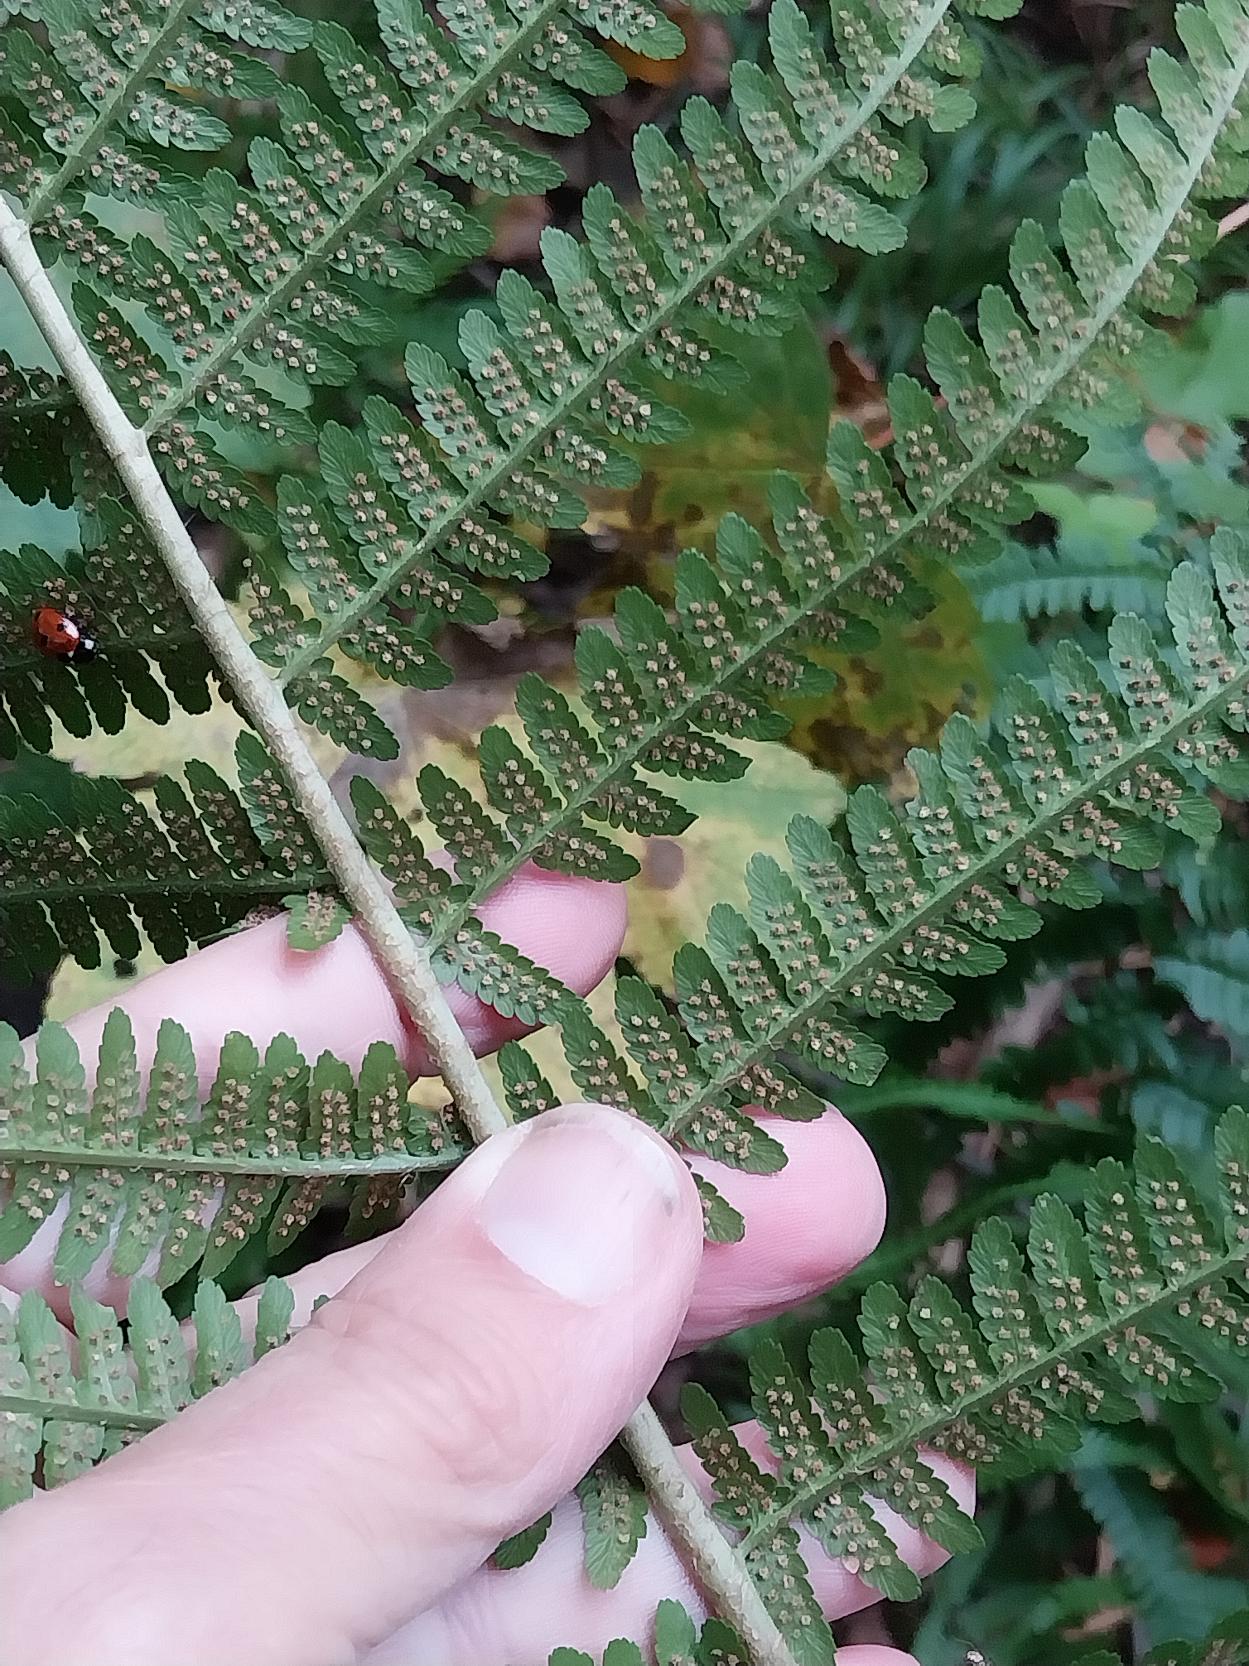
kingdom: Plantae
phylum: Tracheophyta
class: Polypodiopsida
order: Polypodiales
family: Dryopteridaceae
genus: Dryopteris
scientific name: Dryopteris filix-mas
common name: Almindelig mangeløv
